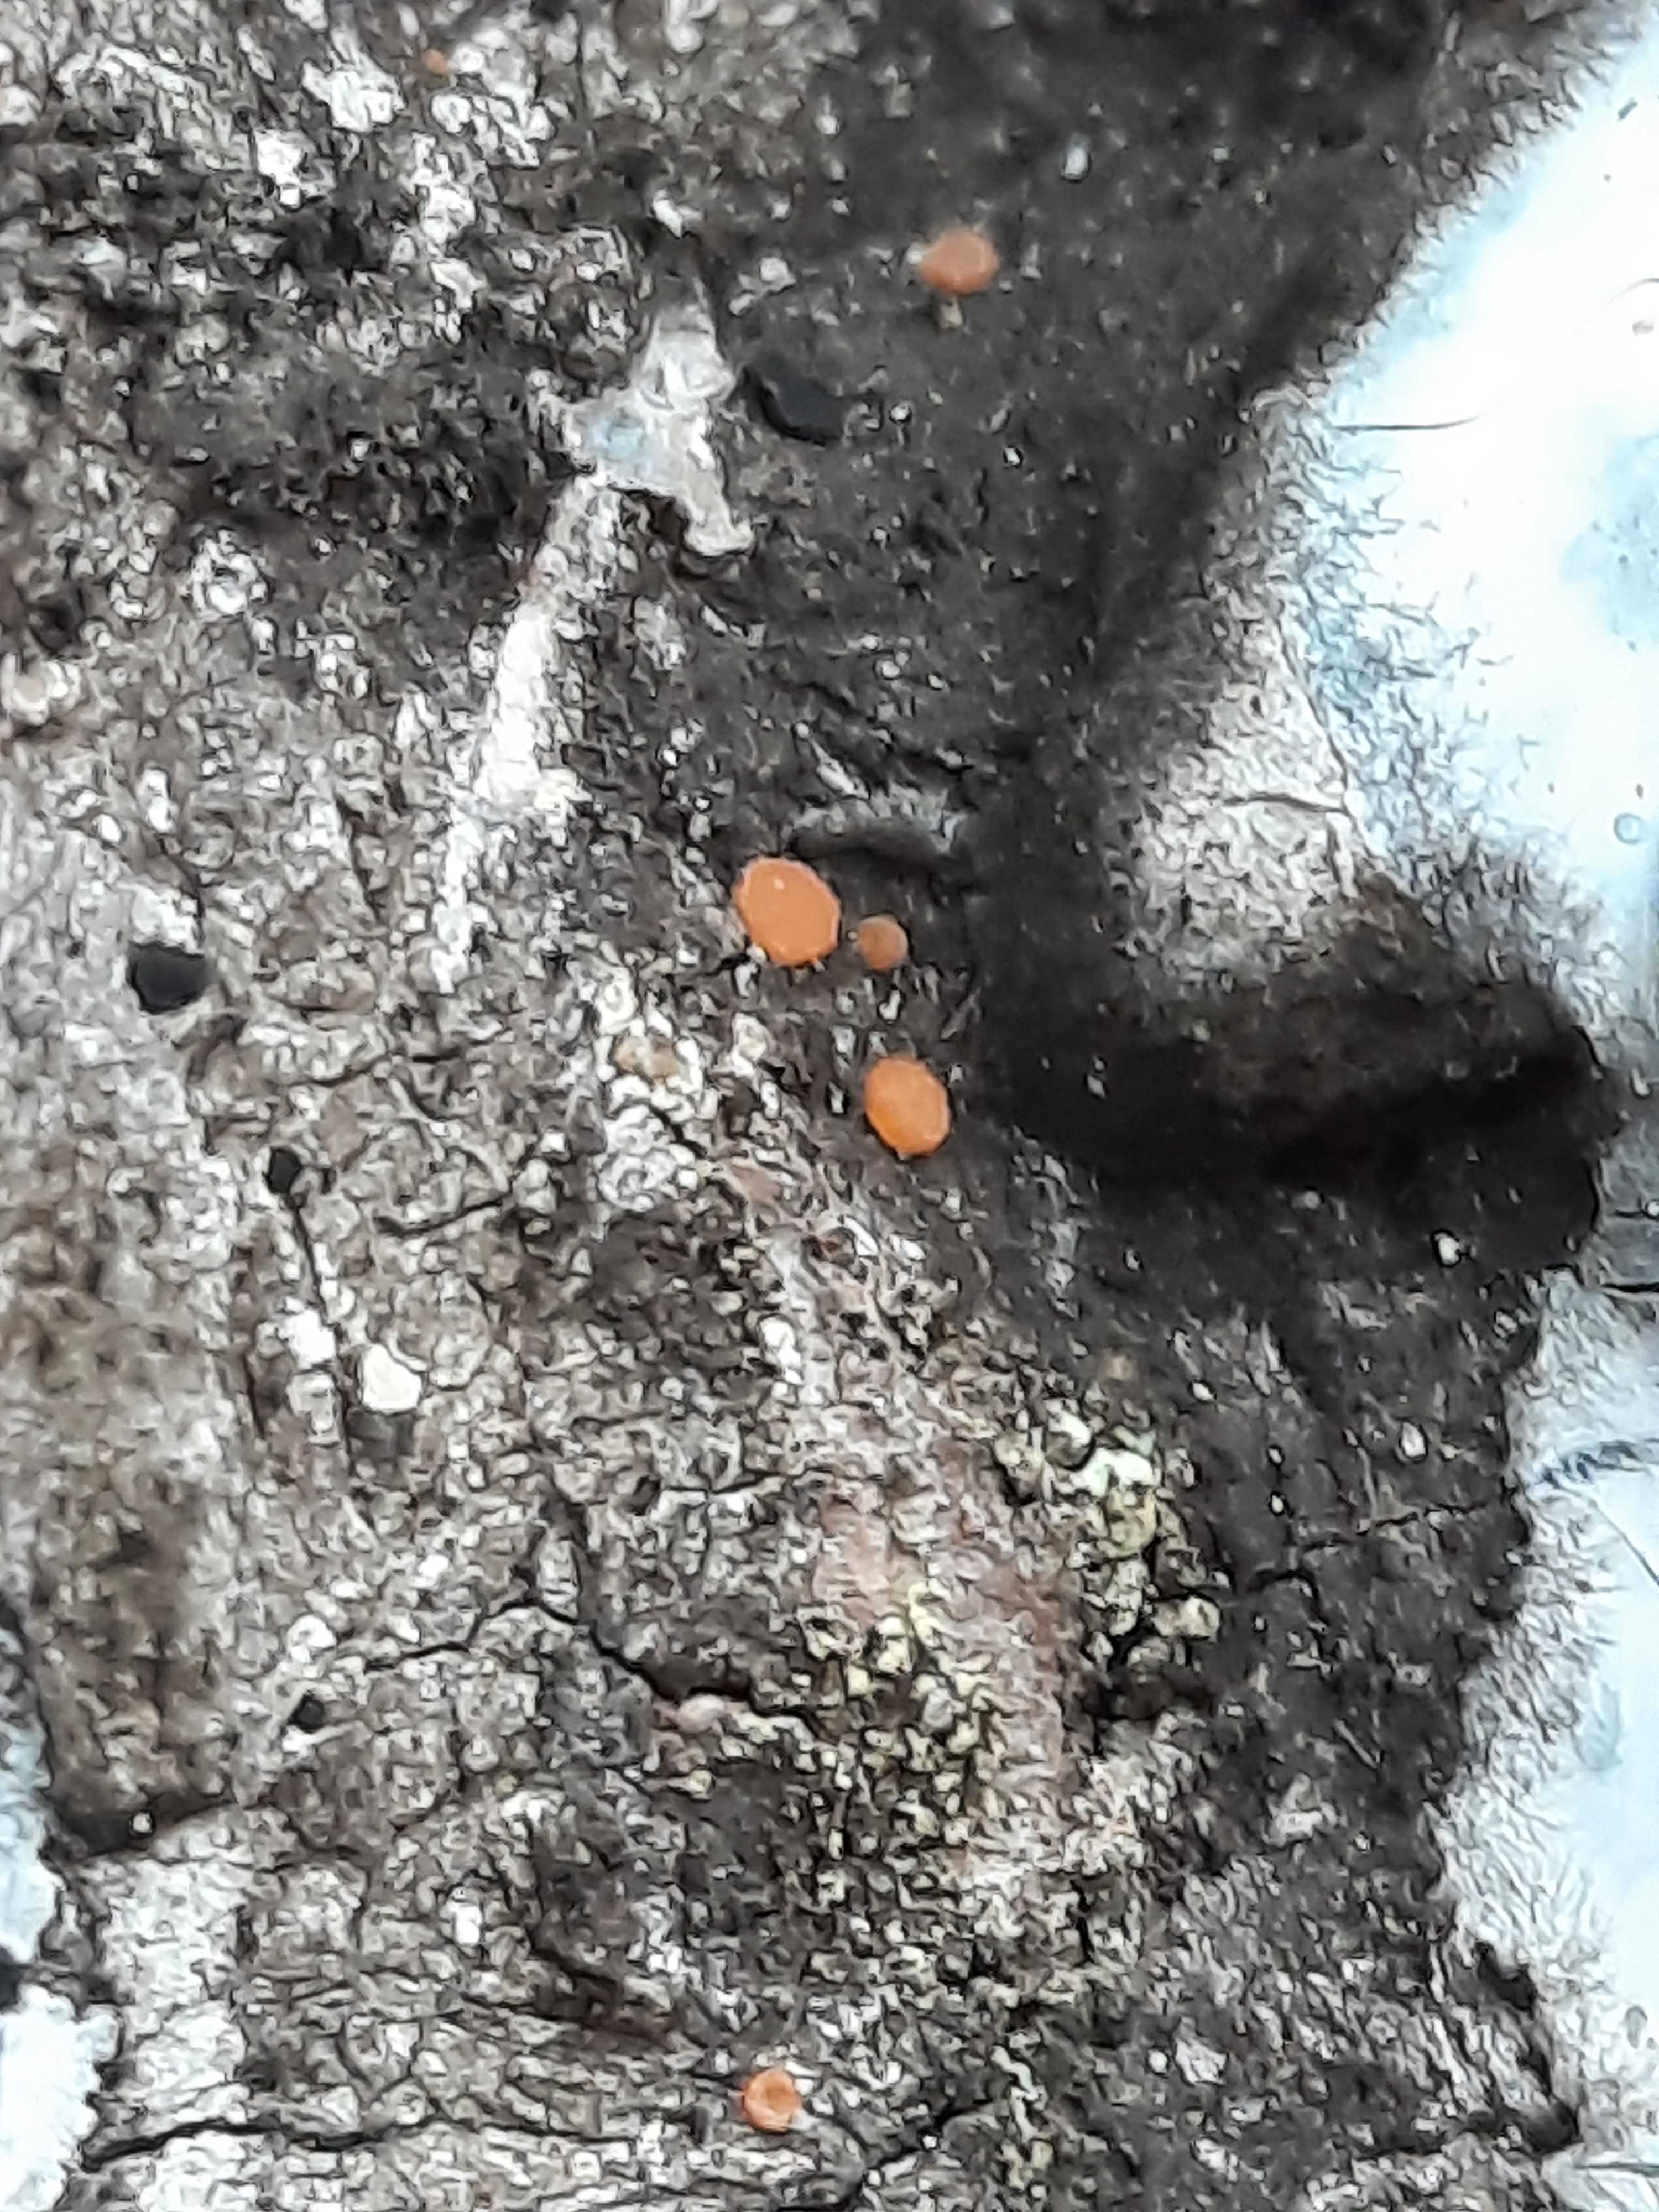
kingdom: Fungi
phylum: Ascomycota
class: Sareomycetes
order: Sareales
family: Sareaceae
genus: Sarea
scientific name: Sarea resinae
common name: orangegul harpiksskive
